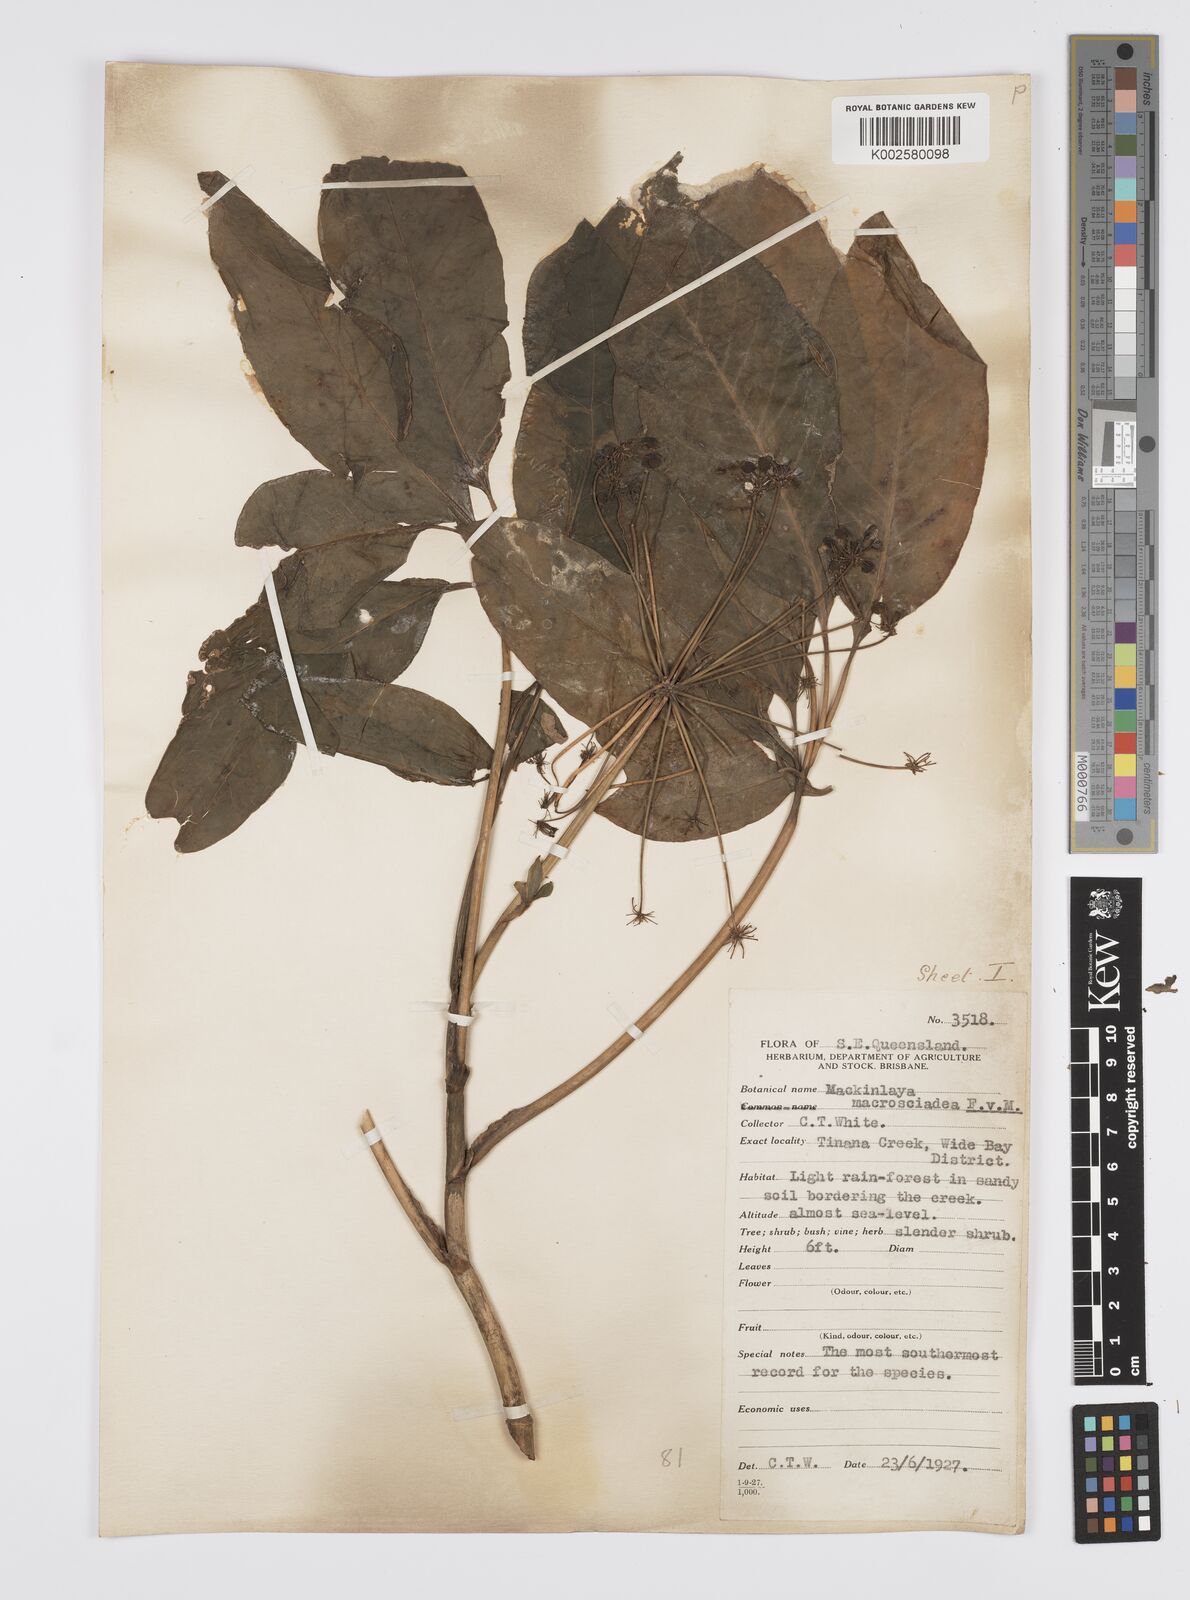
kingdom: Plantae
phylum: Tracheophyta
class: Magnoliopsida
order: Apiales
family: Apiaceae
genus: Mackinlaya
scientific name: Mackinlaya macrosciadea
